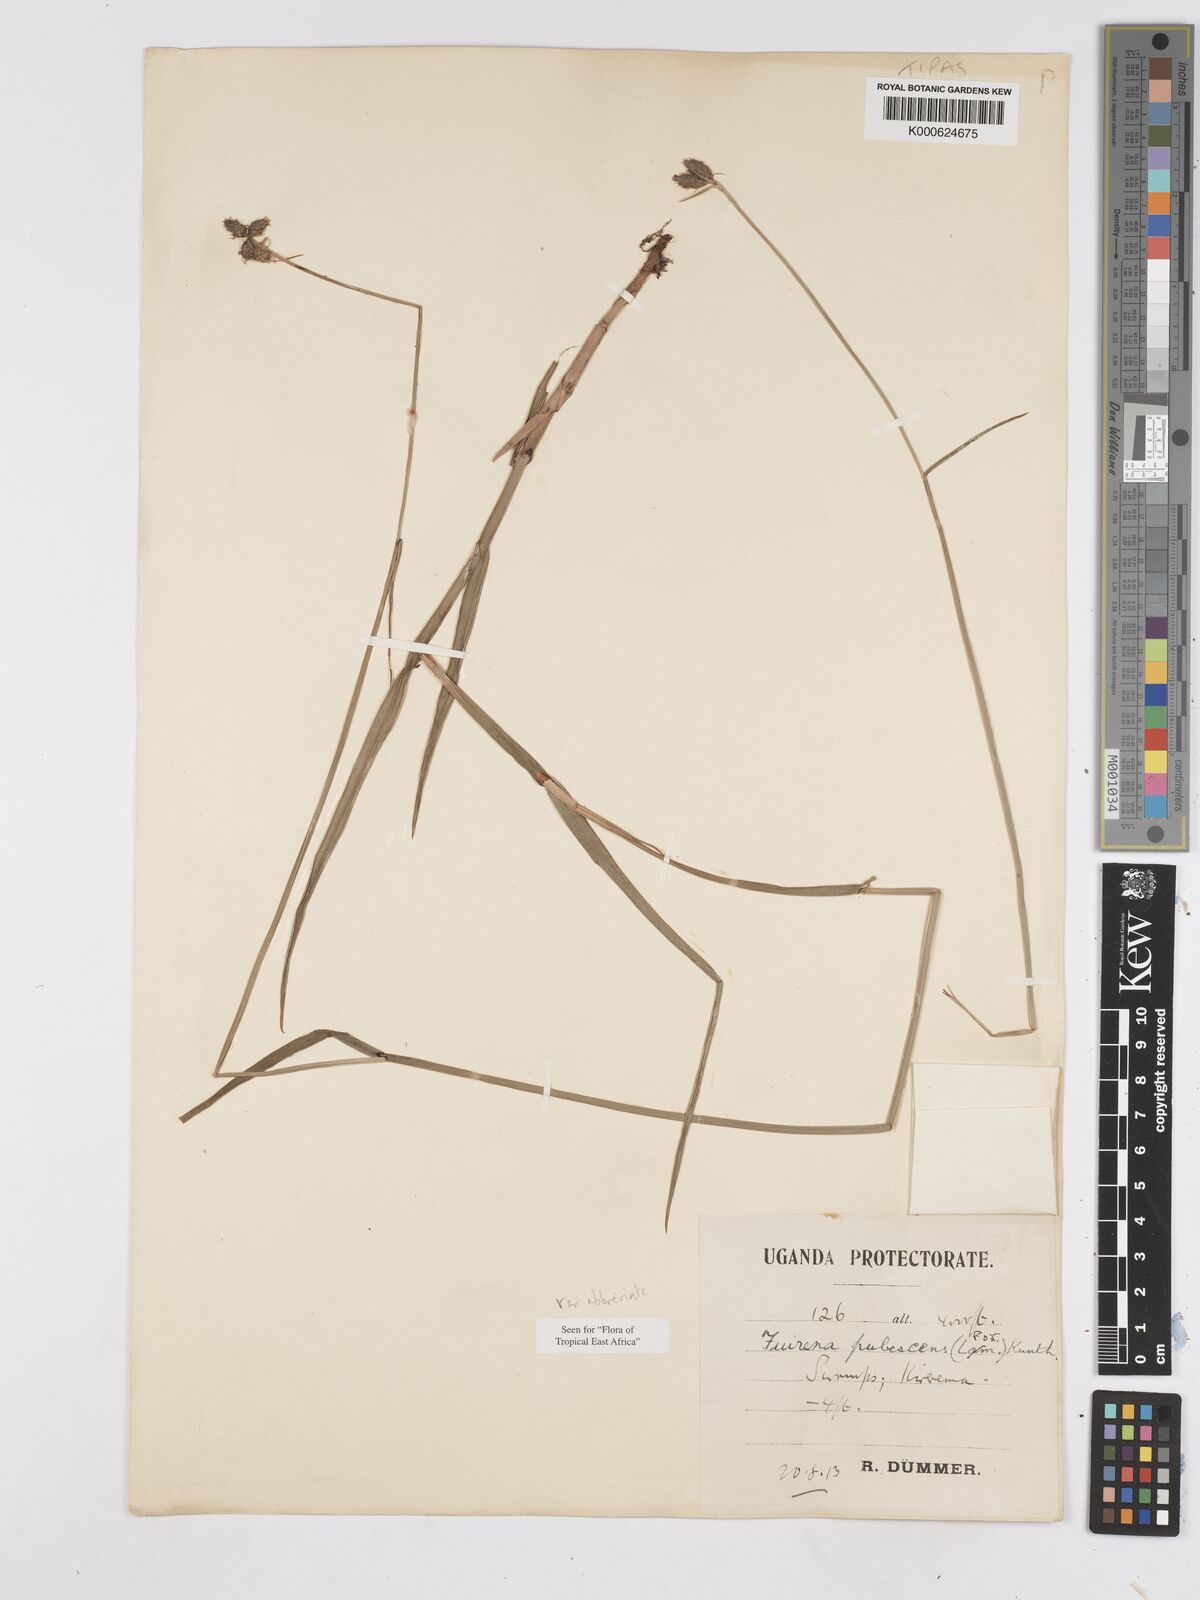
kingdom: Plantae
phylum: Tracheophyta
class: Liliopsida
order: Poales
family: Cyperaceae
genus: Fuirena
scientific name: Fuirena pubescens
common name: Hairy sedge
